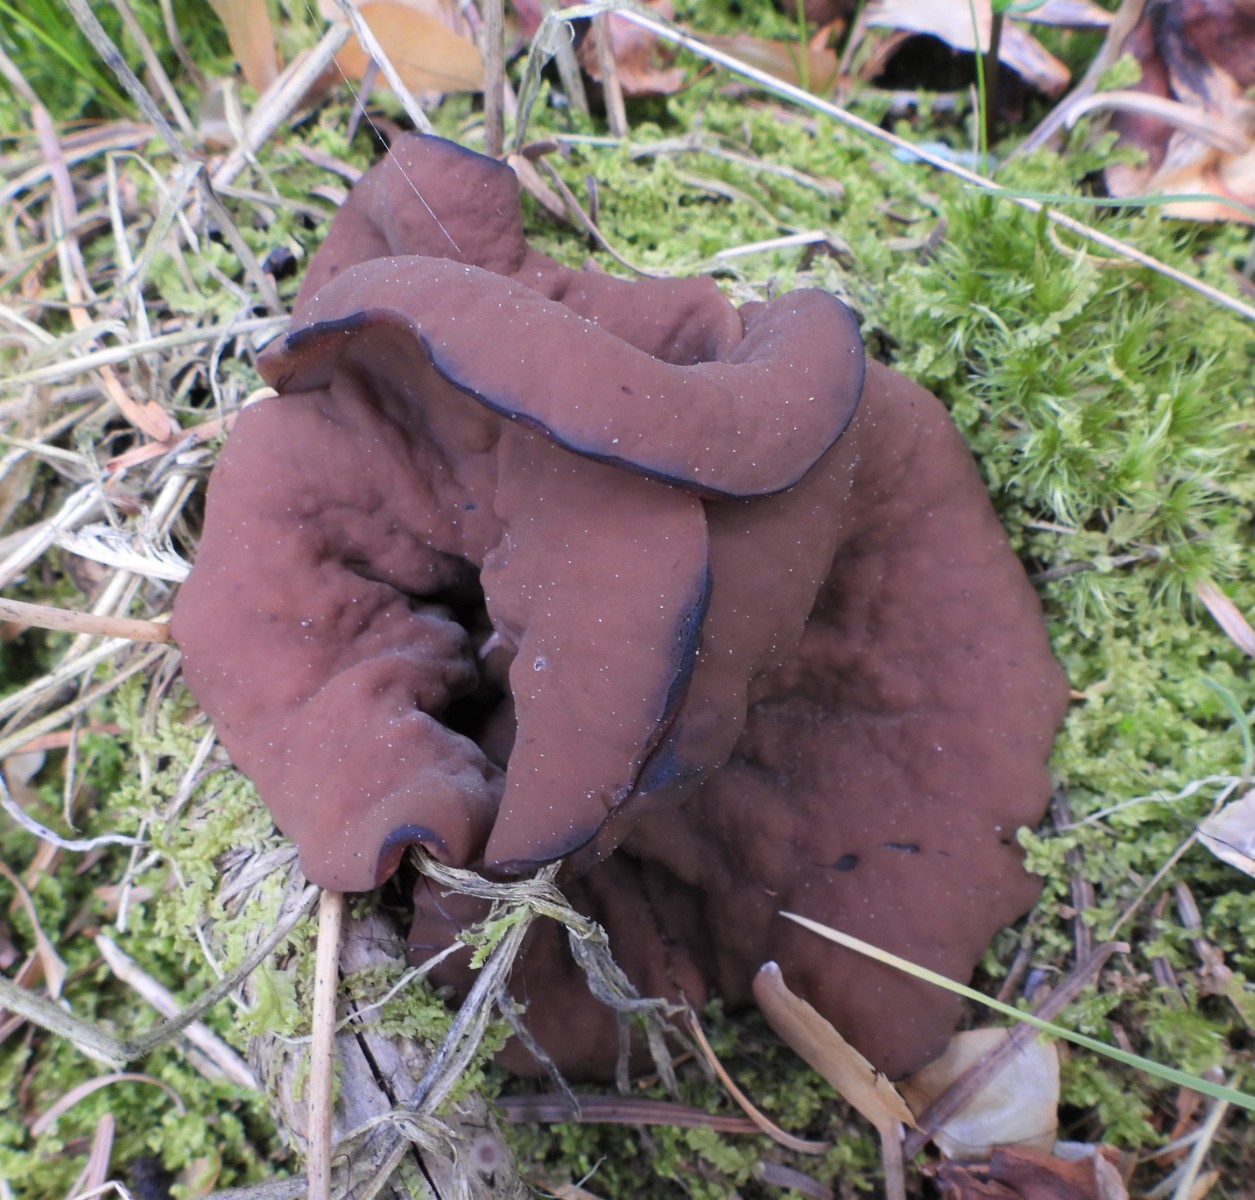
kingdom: Fungi
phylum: Ascomycota
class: Pezizomycetes
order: Pezizales
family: Discinaceae
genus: Discina
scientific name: Discina ancilis
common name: udbredt stenmorkel
